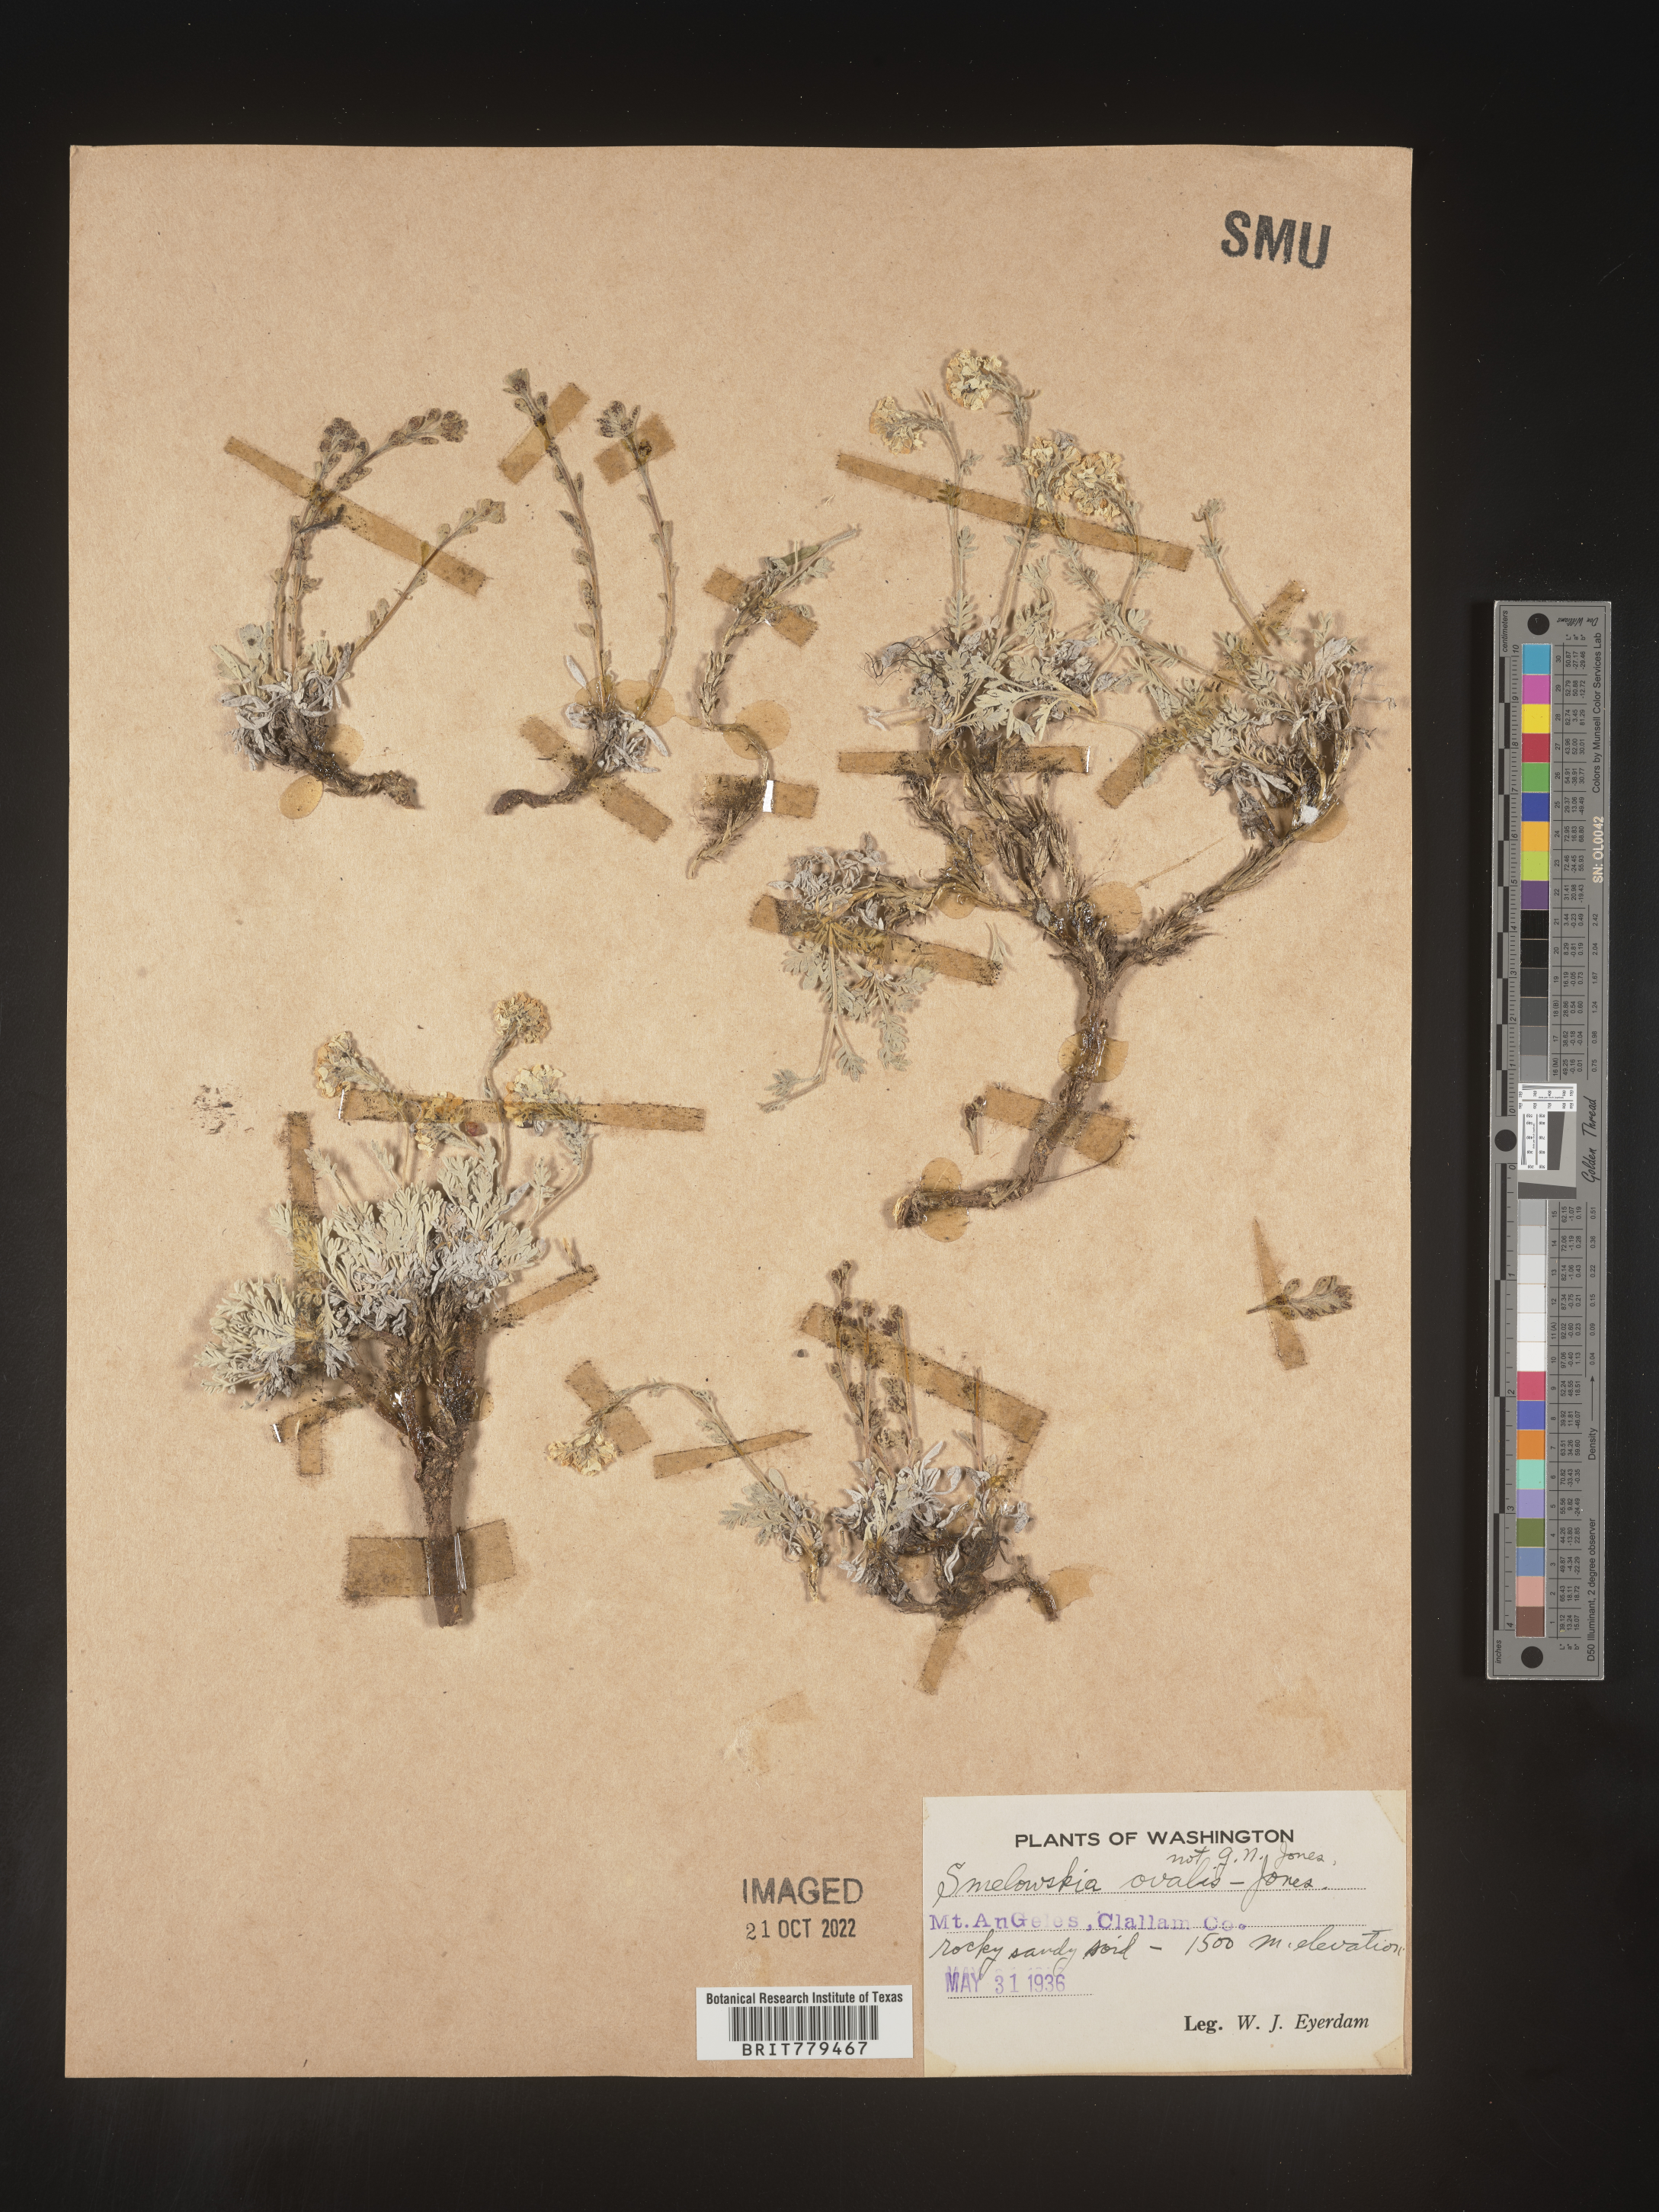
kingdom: Plantae
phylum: Tracheophyta
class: Magnoliopsida
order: Brassicales
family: Brassicaceae
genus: Smelowskia
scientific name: Smelowskia
